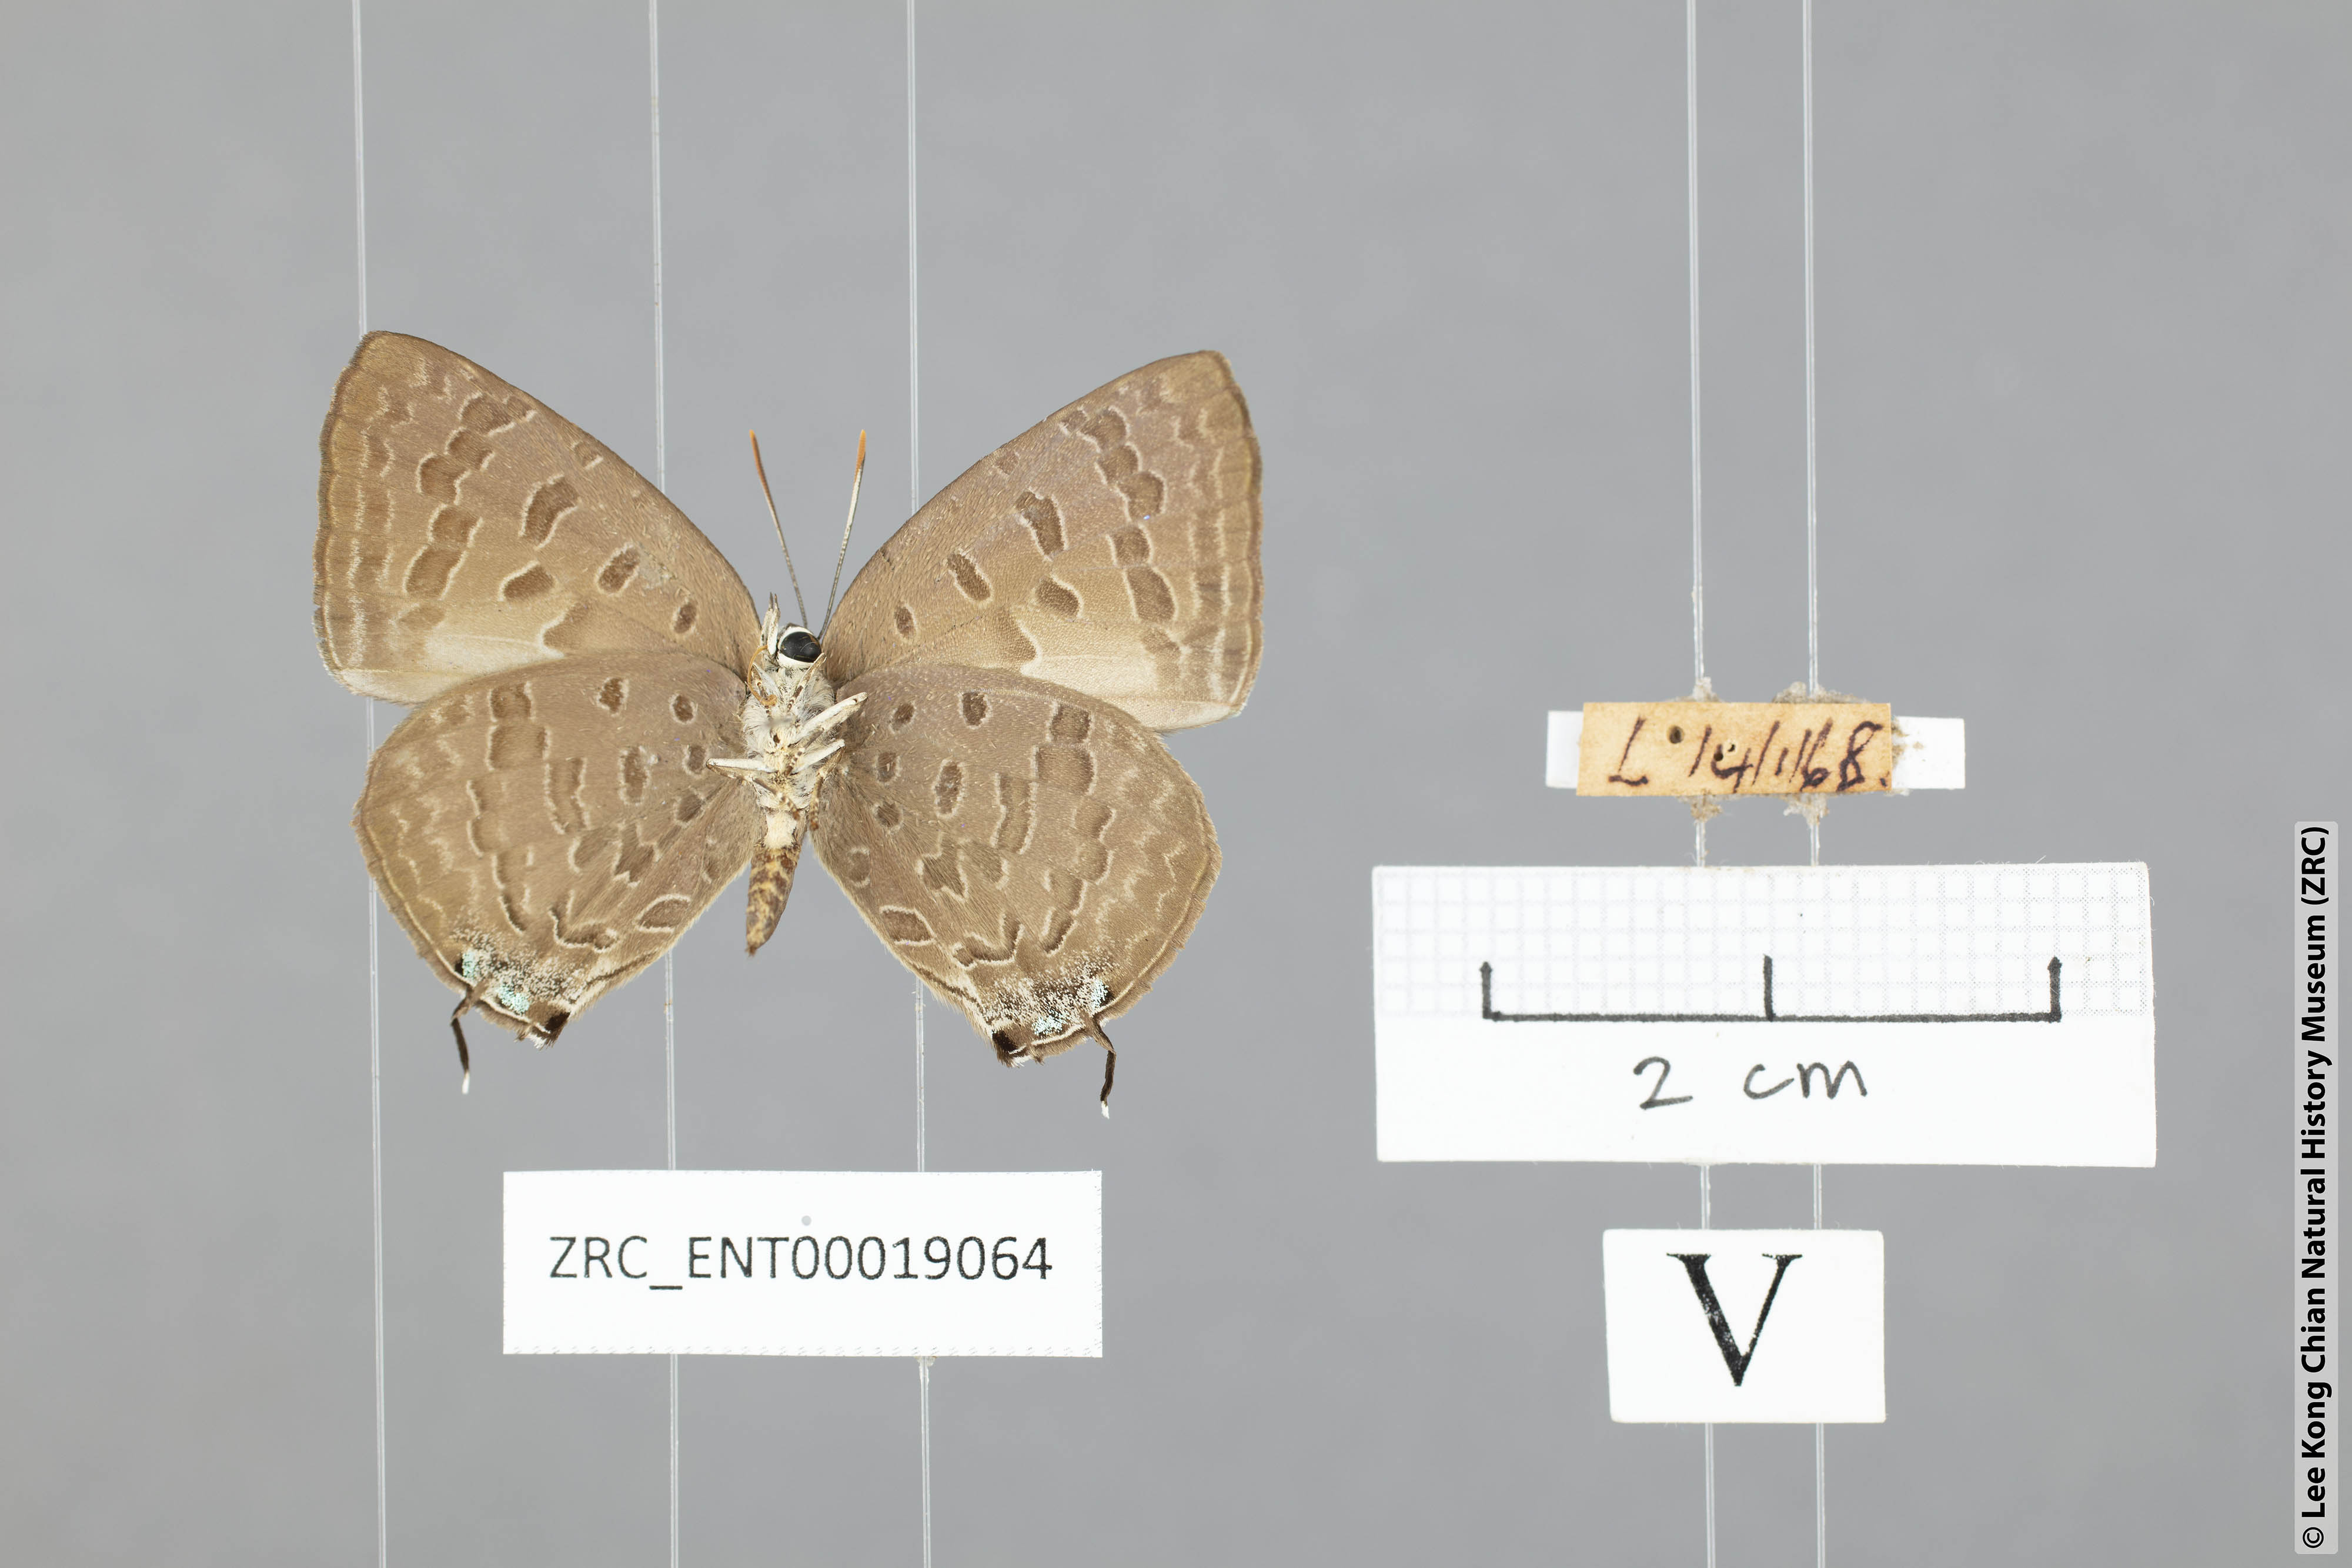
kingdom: Animalia
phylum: Arthropoda
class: Insecta
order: Lepidoptera
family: Lycaenidae
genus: Arhopala
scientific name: Arhopala aida
